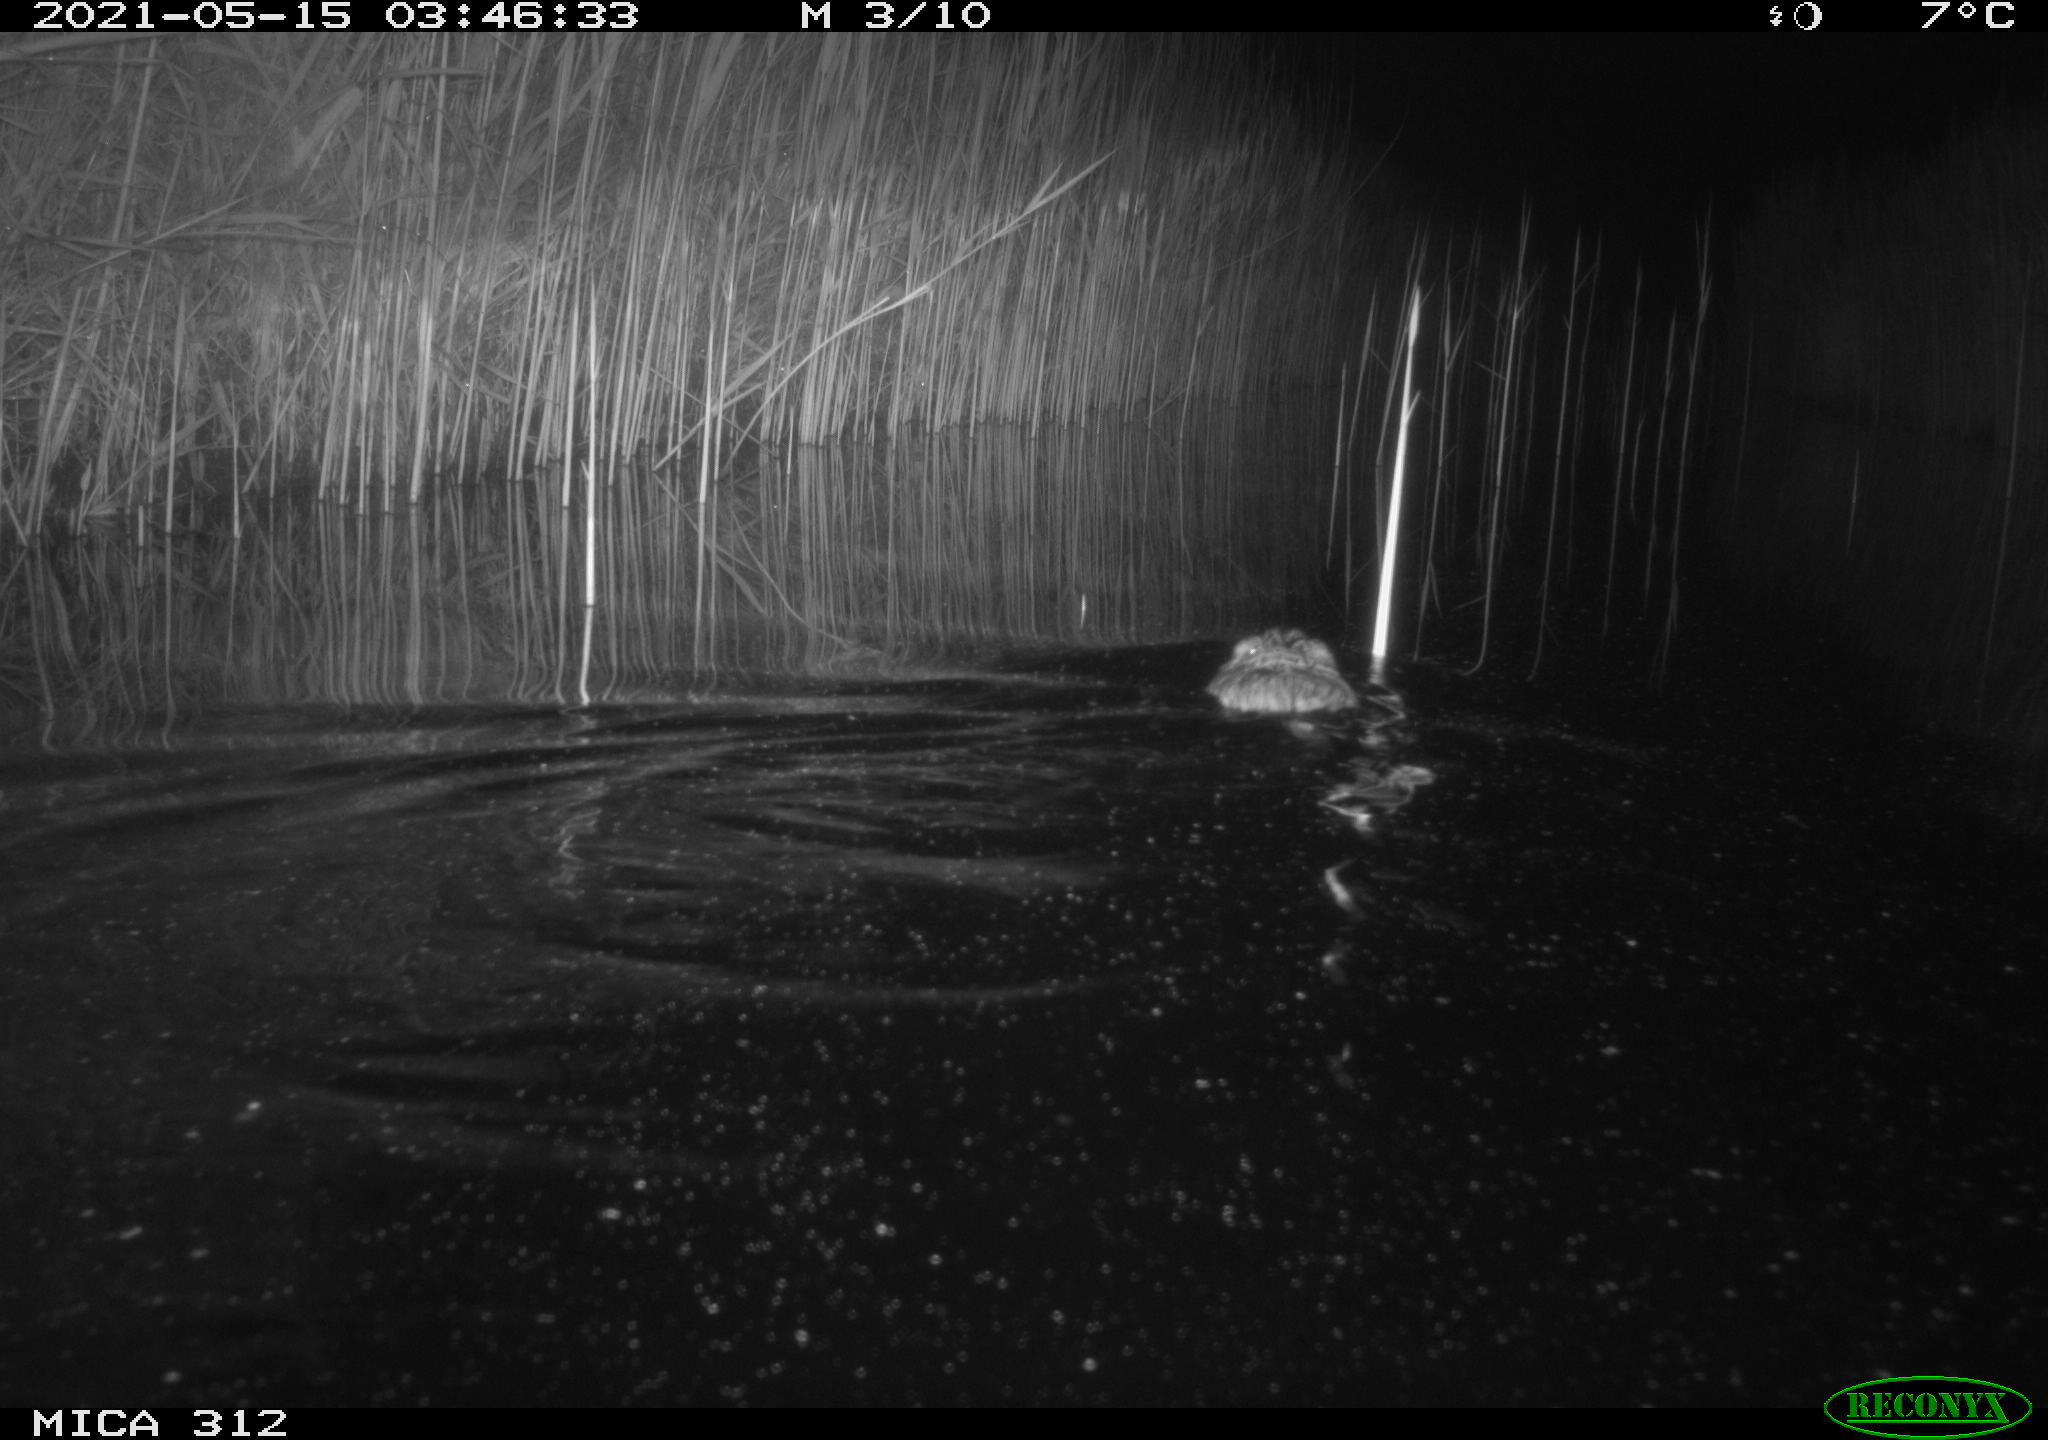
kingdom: Animalia
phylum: Chordata
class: Mammalia
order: Rodentia
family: Cricetidae
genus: Ondatra
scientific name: Ondatra zibethicus
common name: Muskrat
